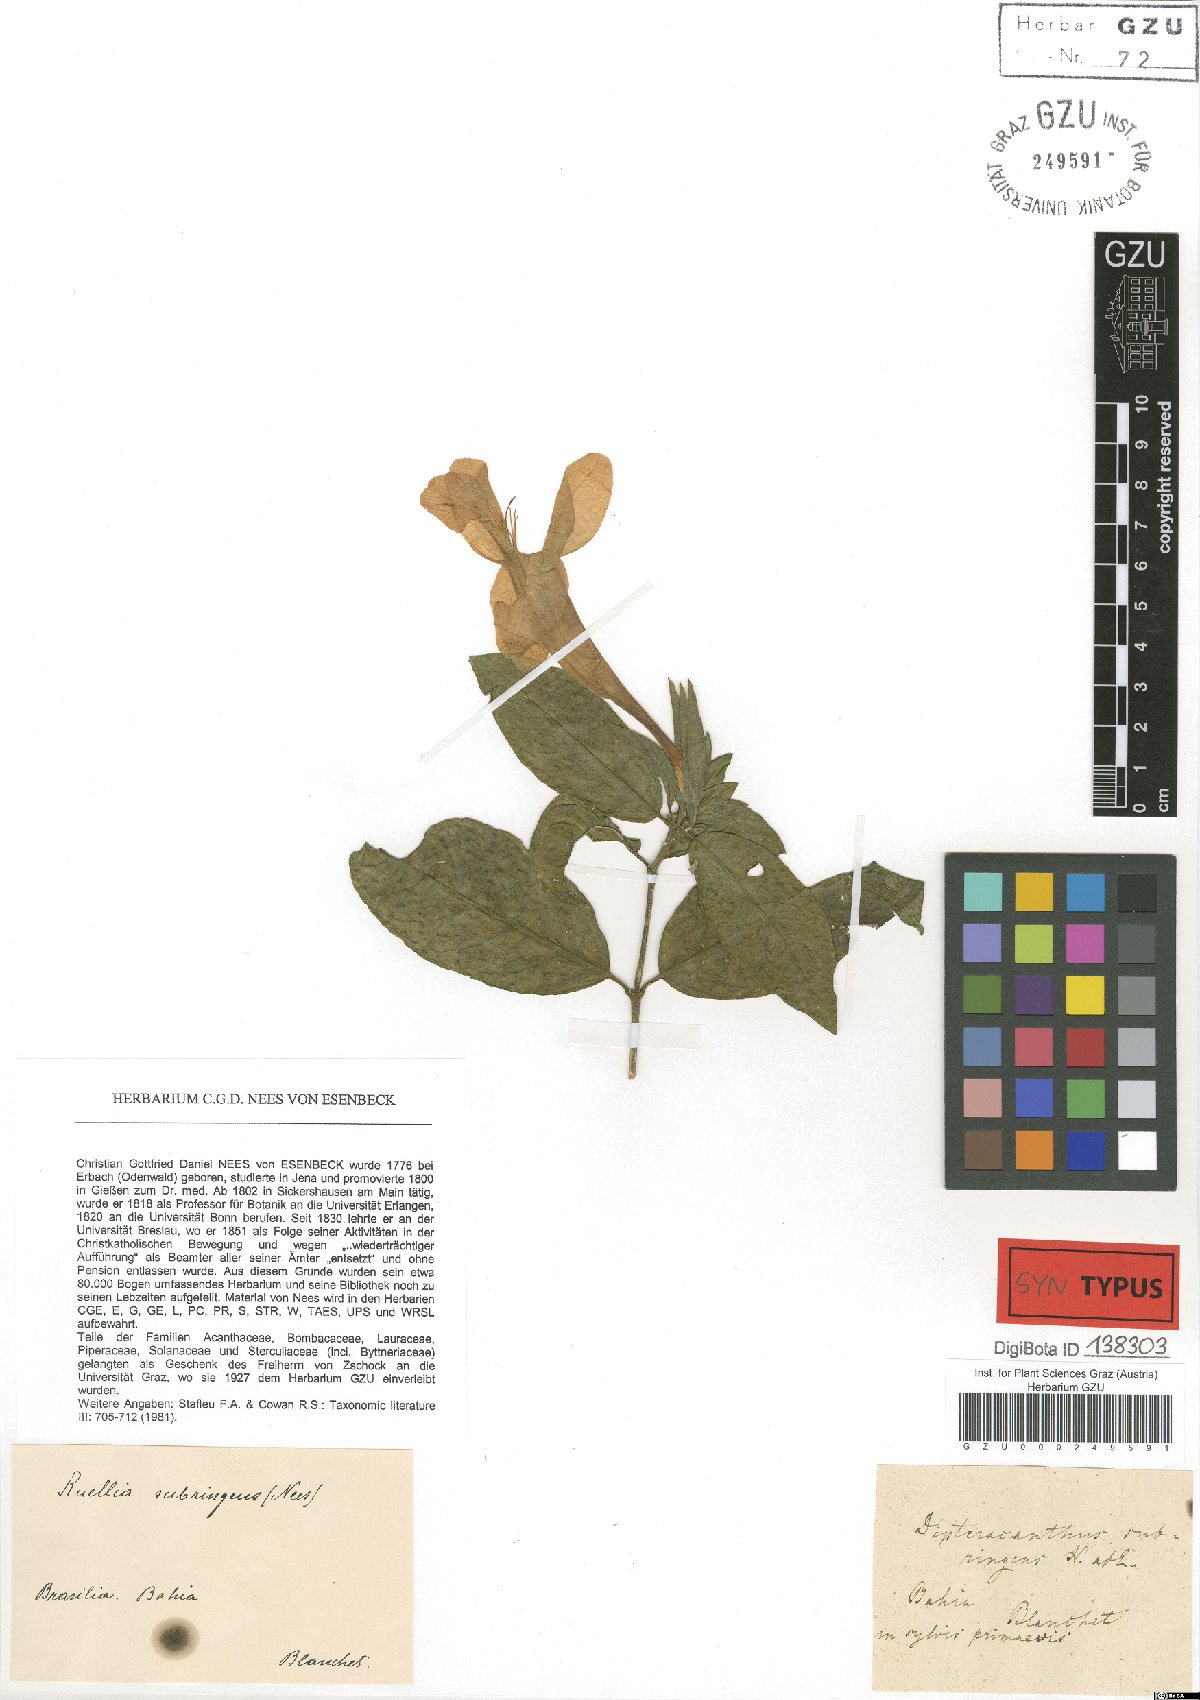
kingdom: Plantae
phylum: Tracheophyta
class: Magnoliopsida
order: Lamiales
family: Acanthaceae
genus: Ruellia
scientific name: Ruellia subringens
